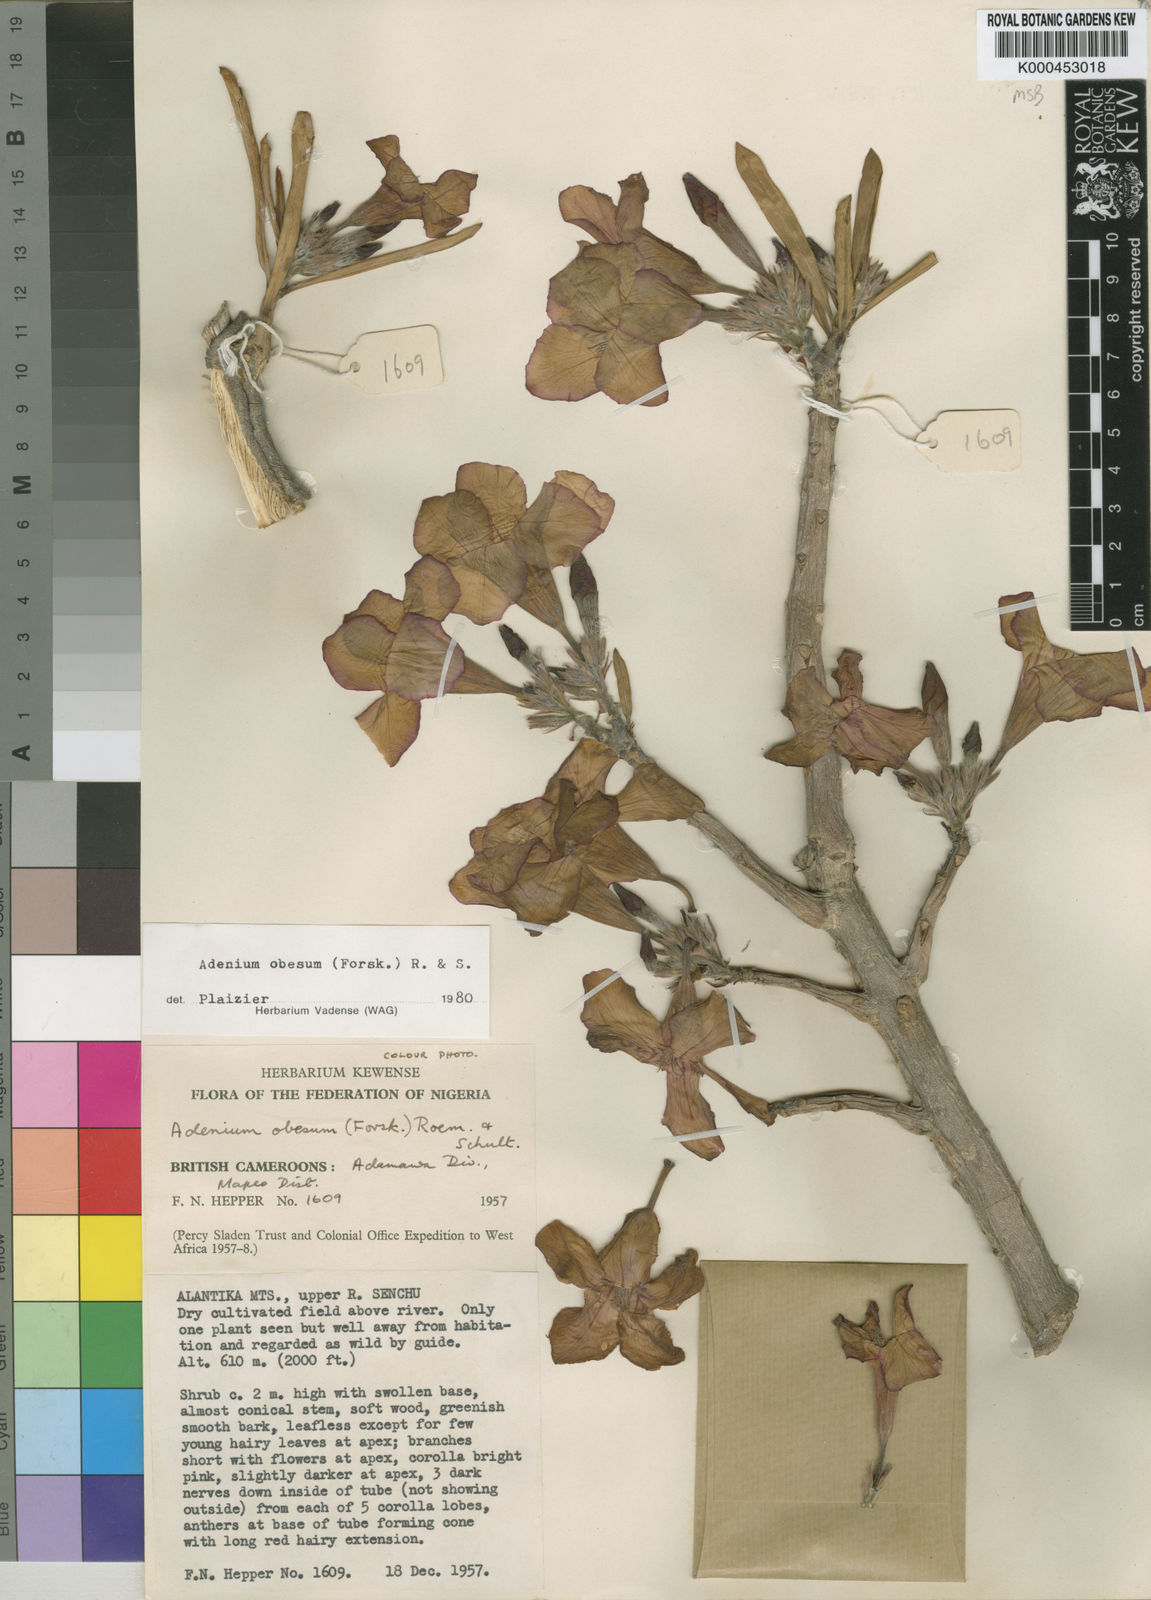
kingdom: Plantae
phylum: Tracheophyta
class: Magnoliopsida
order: Gentianales
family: Apocynaceae
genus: Adenium
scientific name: Adenium obesum
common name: Desert-rose
